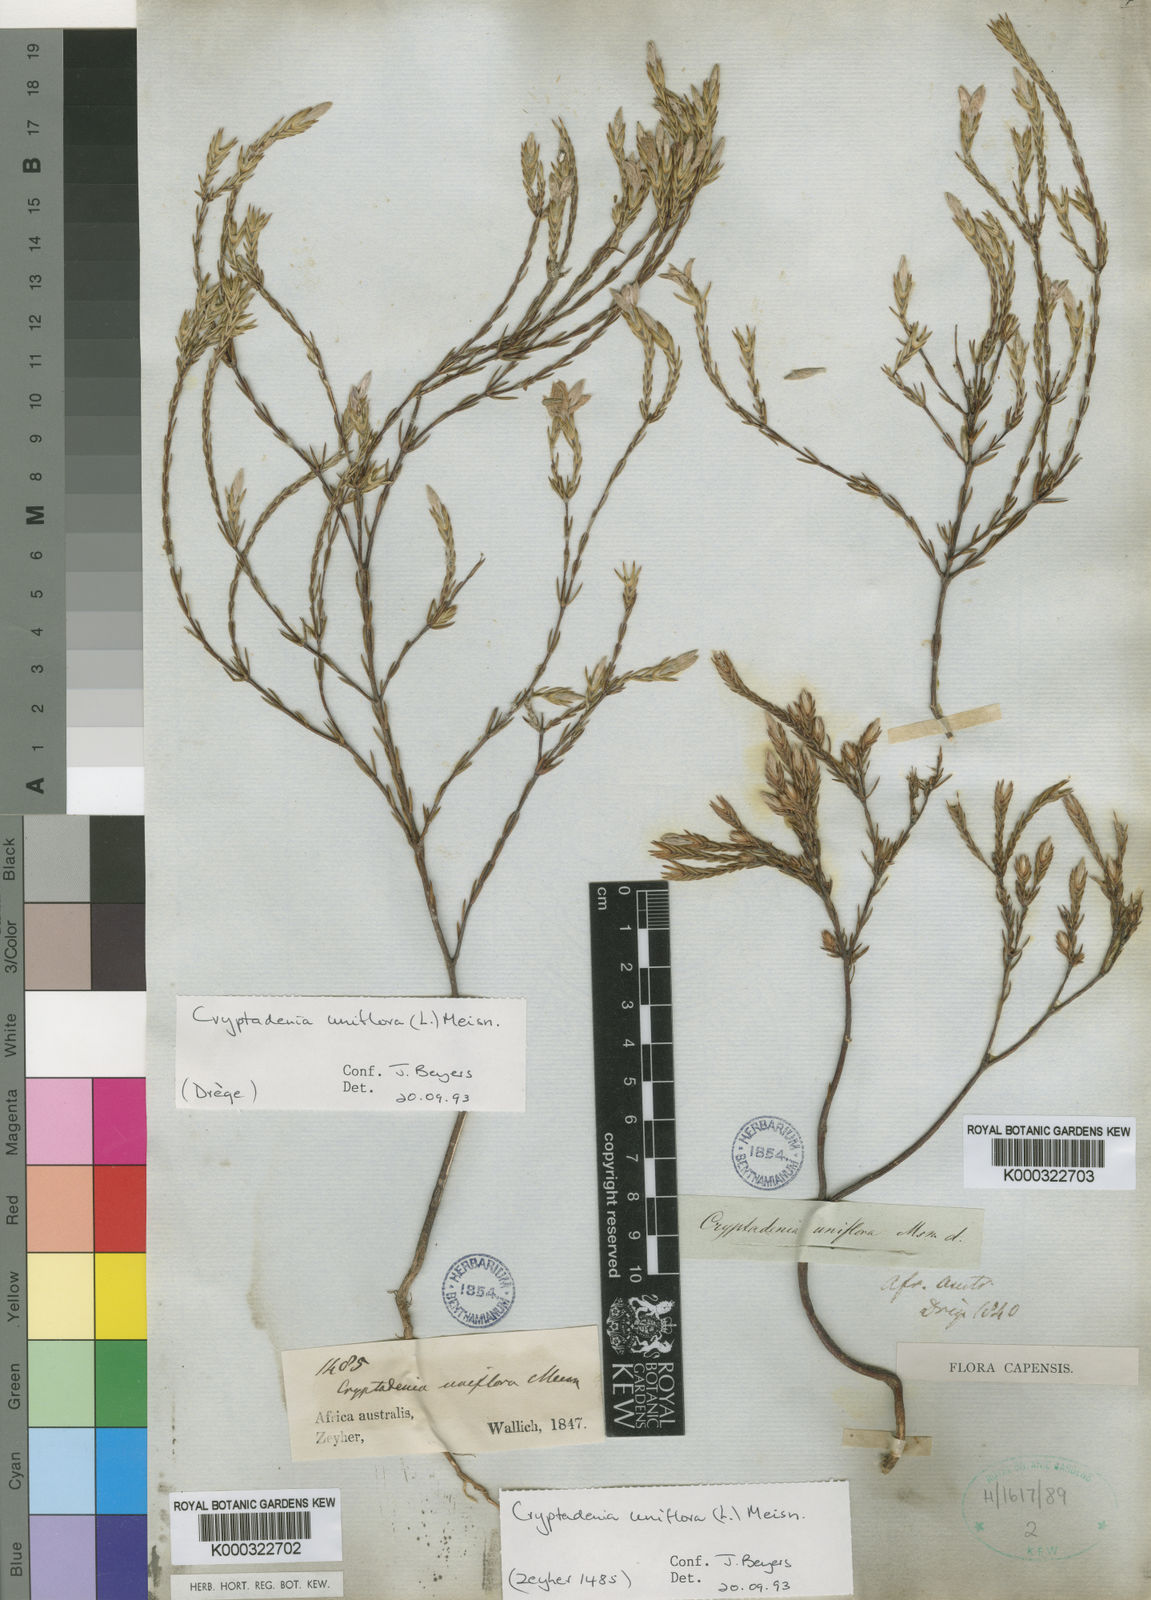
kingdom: Plantae
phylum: Tracheophyta
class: Magnoliopsida
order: Malvales
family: Thymelaeaceae
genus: Lachnaea
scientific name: Lachnaea uniflora
